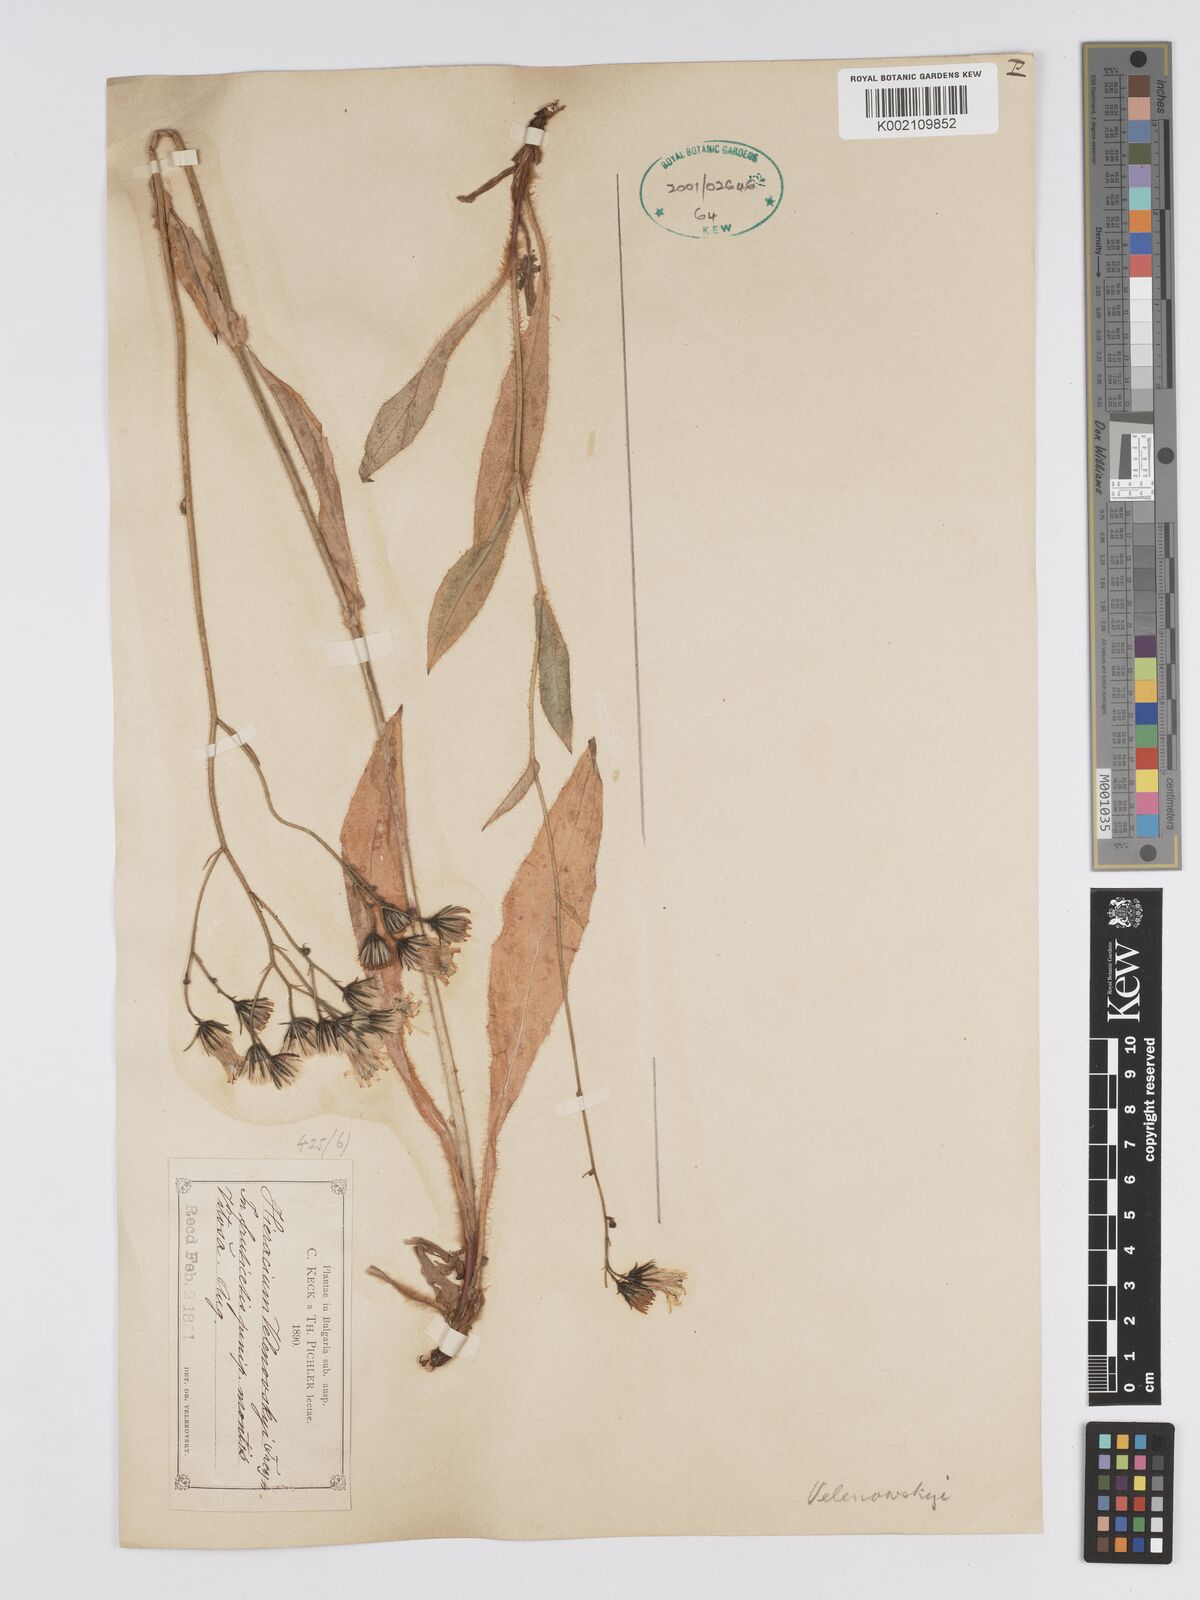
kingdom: Plantae
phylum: Tracheophyta
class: Magnoliopsida
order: Asterales
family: Asteraceae
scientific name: Asteraceae
